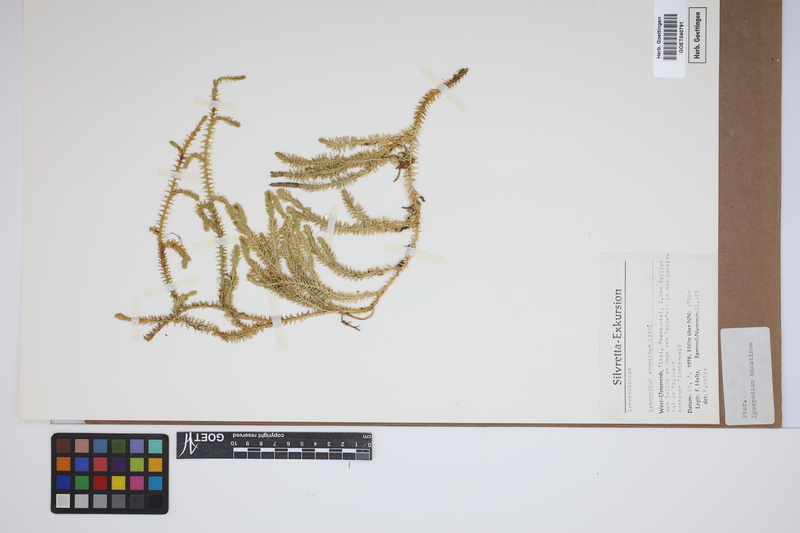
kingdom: Plantae
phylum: Tracheophyta
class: Lycopodiopsida
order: Lycopodiales
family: Lycopodiaceae
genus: Spinulum
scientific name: Spinulum annotinum
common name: Interrupted club-moss
